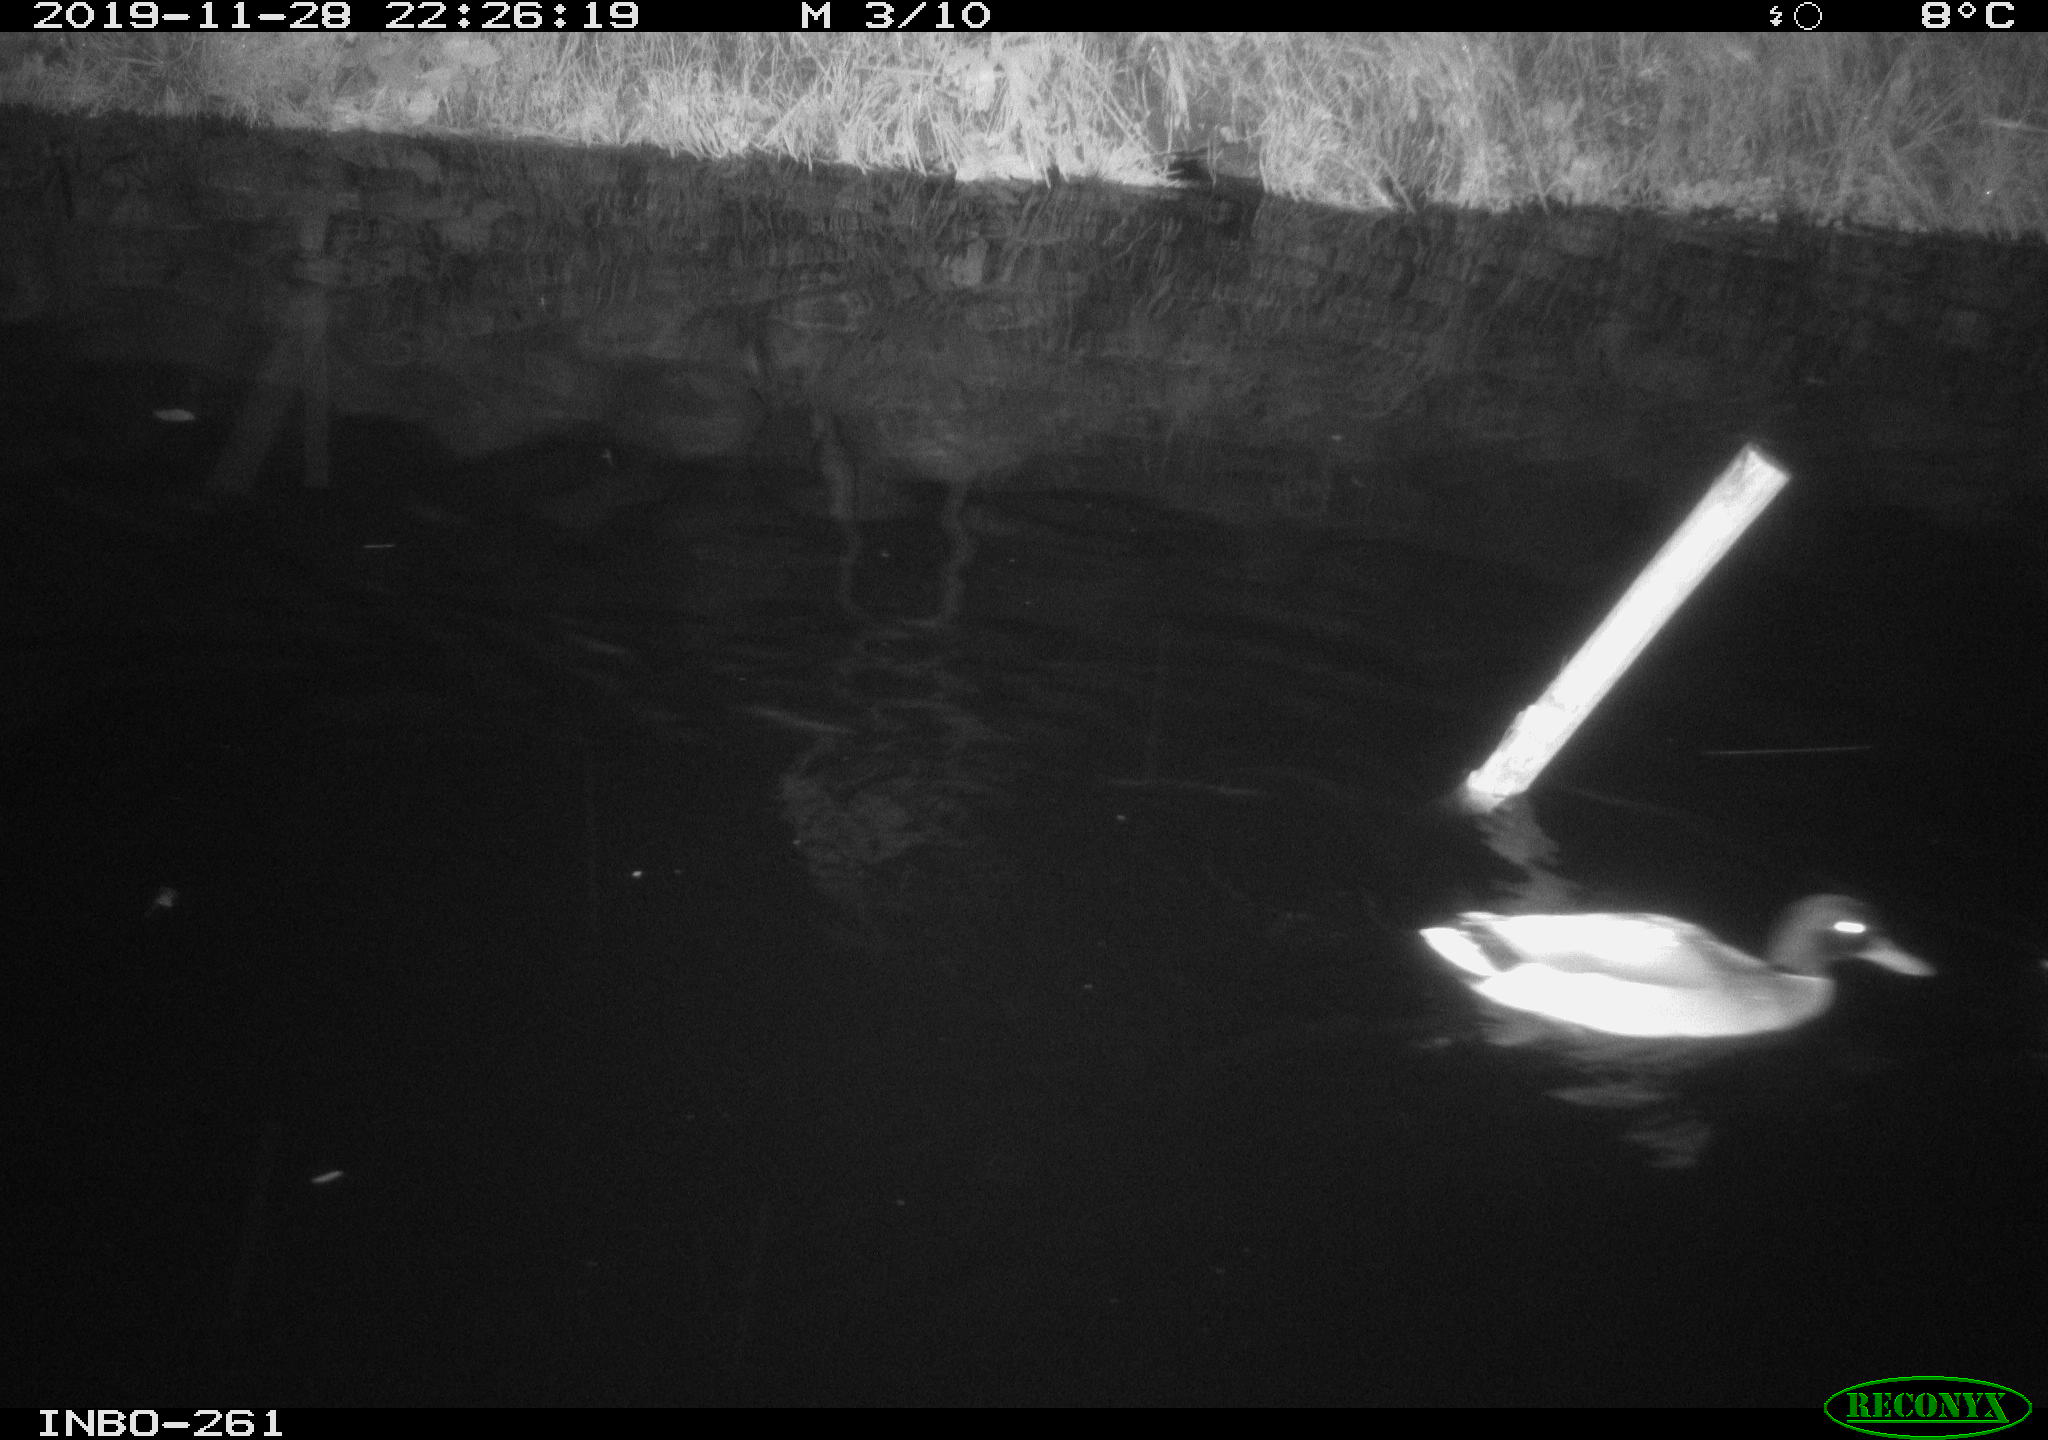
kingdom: Animalia
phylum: Chordata
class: Aves
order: Anseriformes
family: Anatidae
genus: Anas
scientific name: Anas platyrhynchos
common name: Mallard
